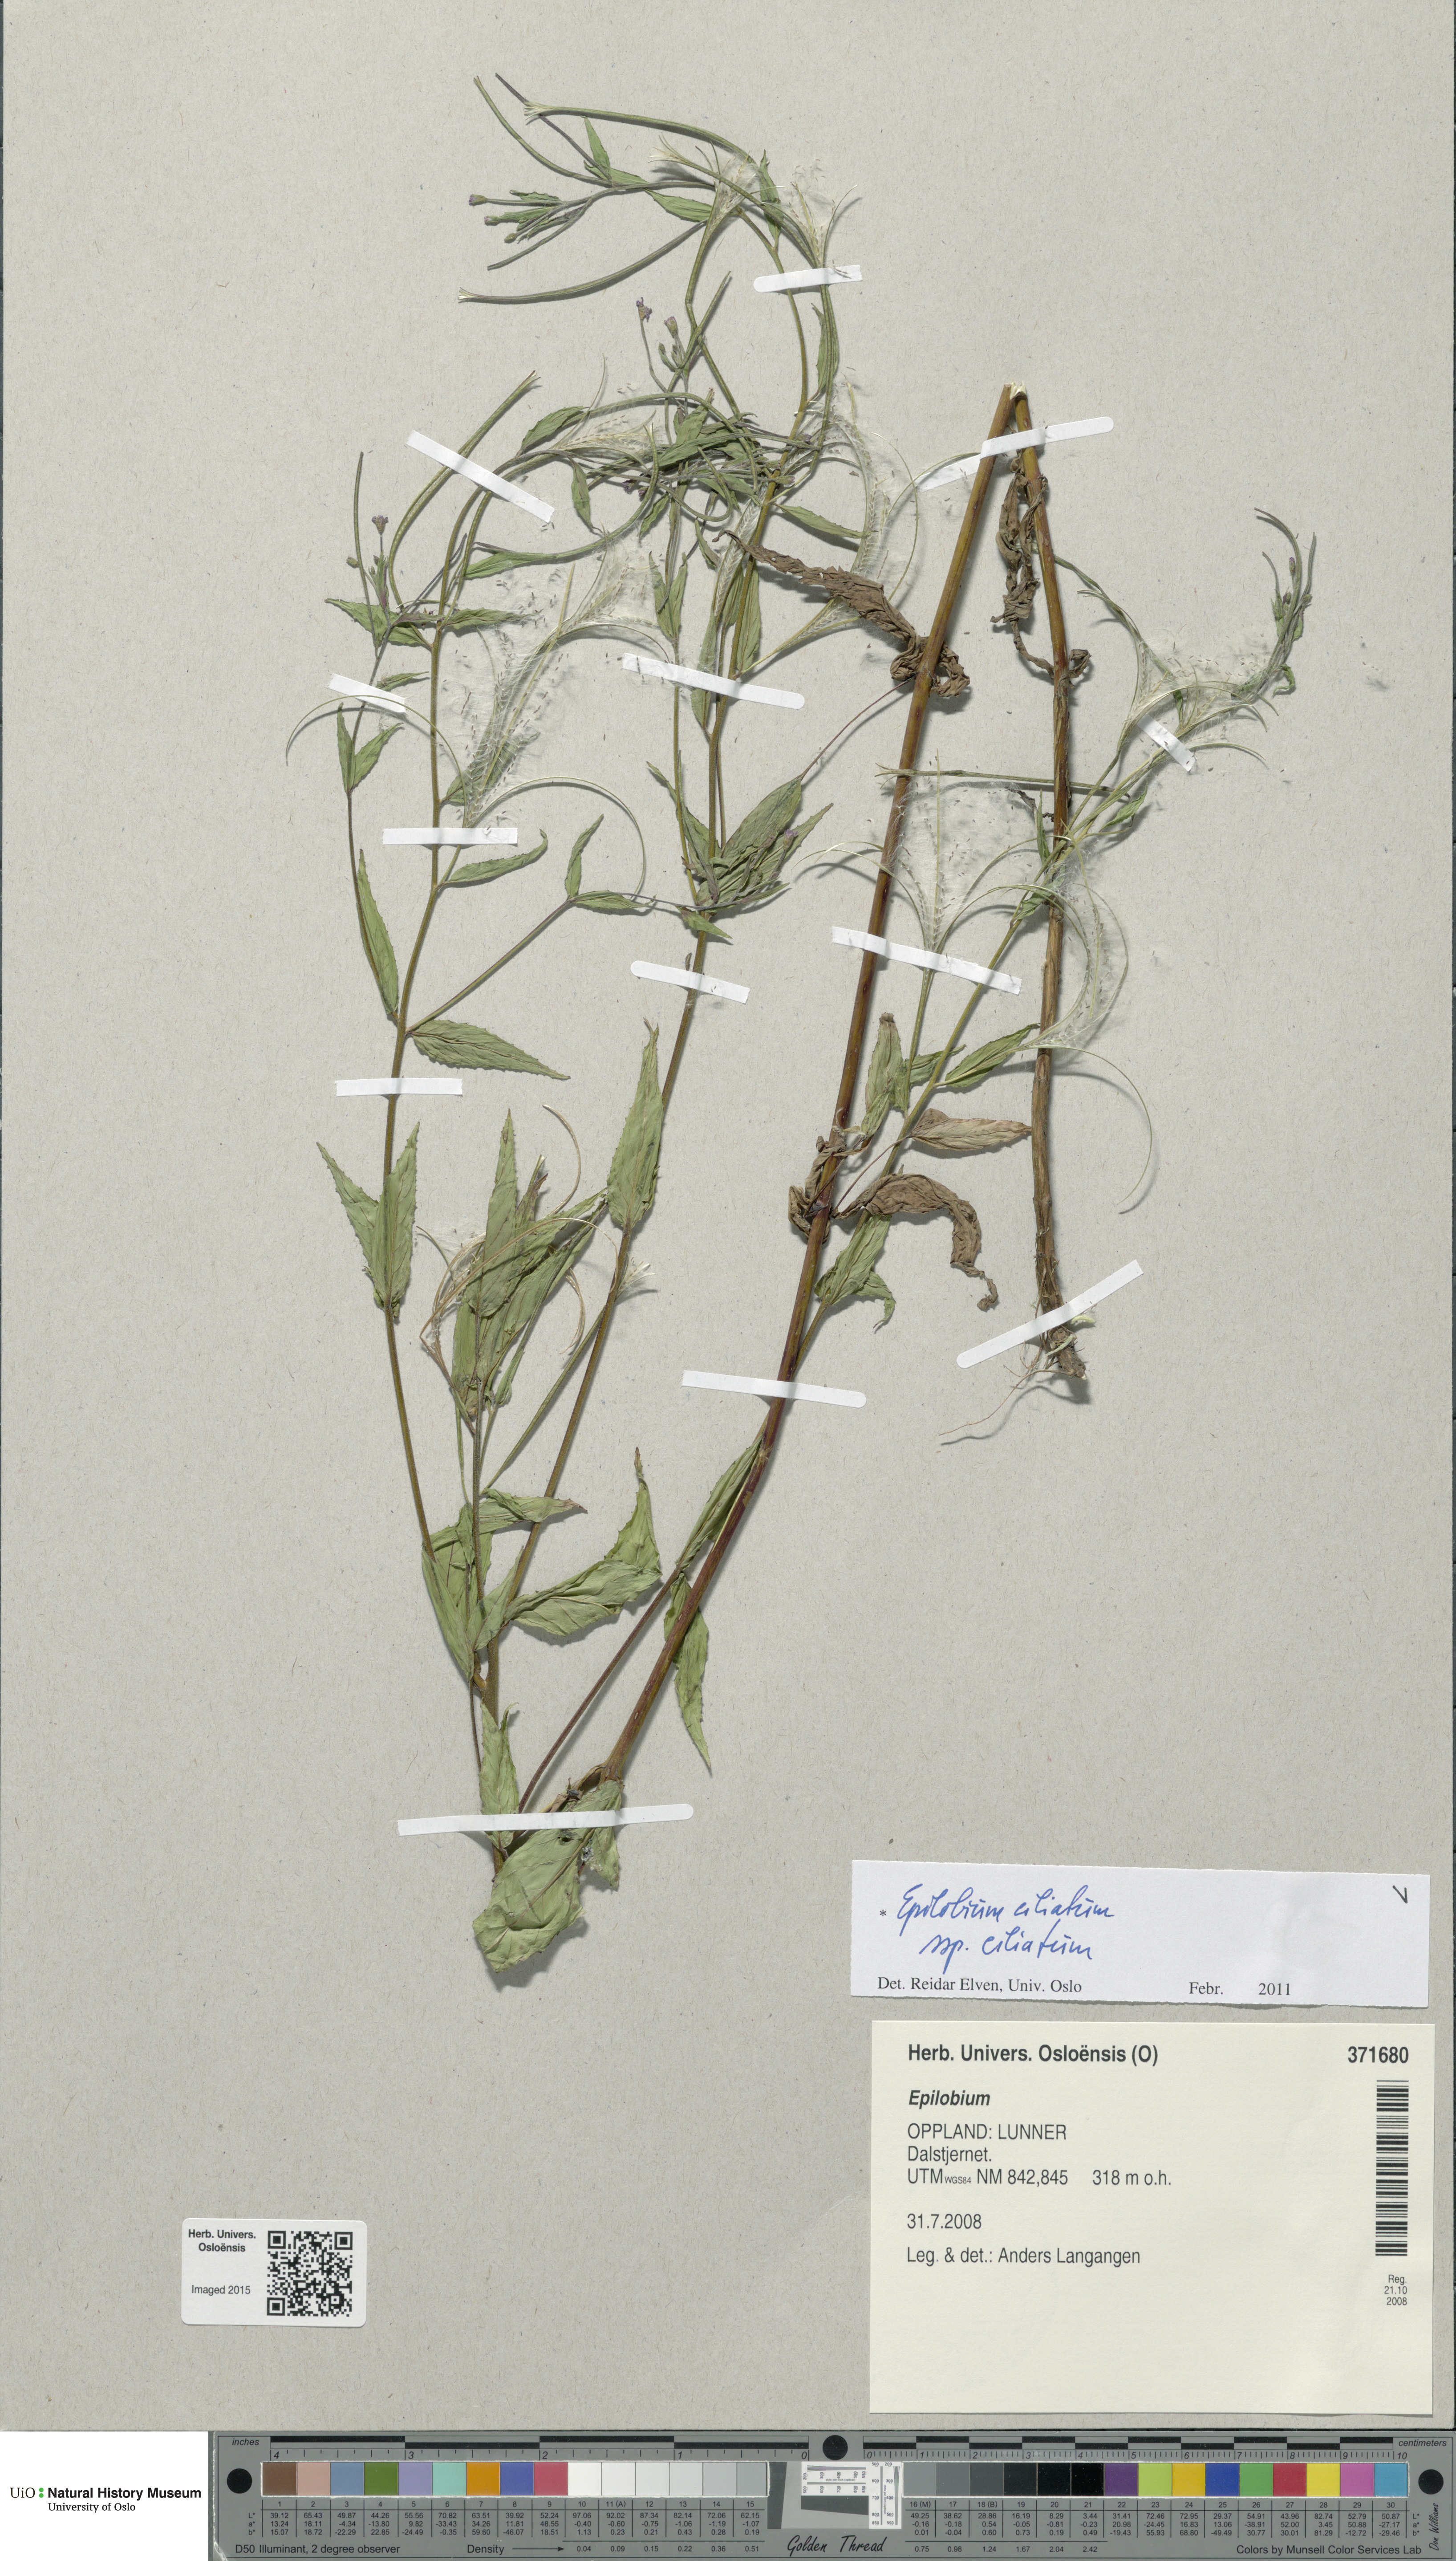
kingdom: Plantae
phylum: Tracheophyta
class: Magnoliopsida
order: Myrtales
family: Onagraceae
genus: Epilobium
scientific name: Epilobium ciliatum
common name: American willowherb
